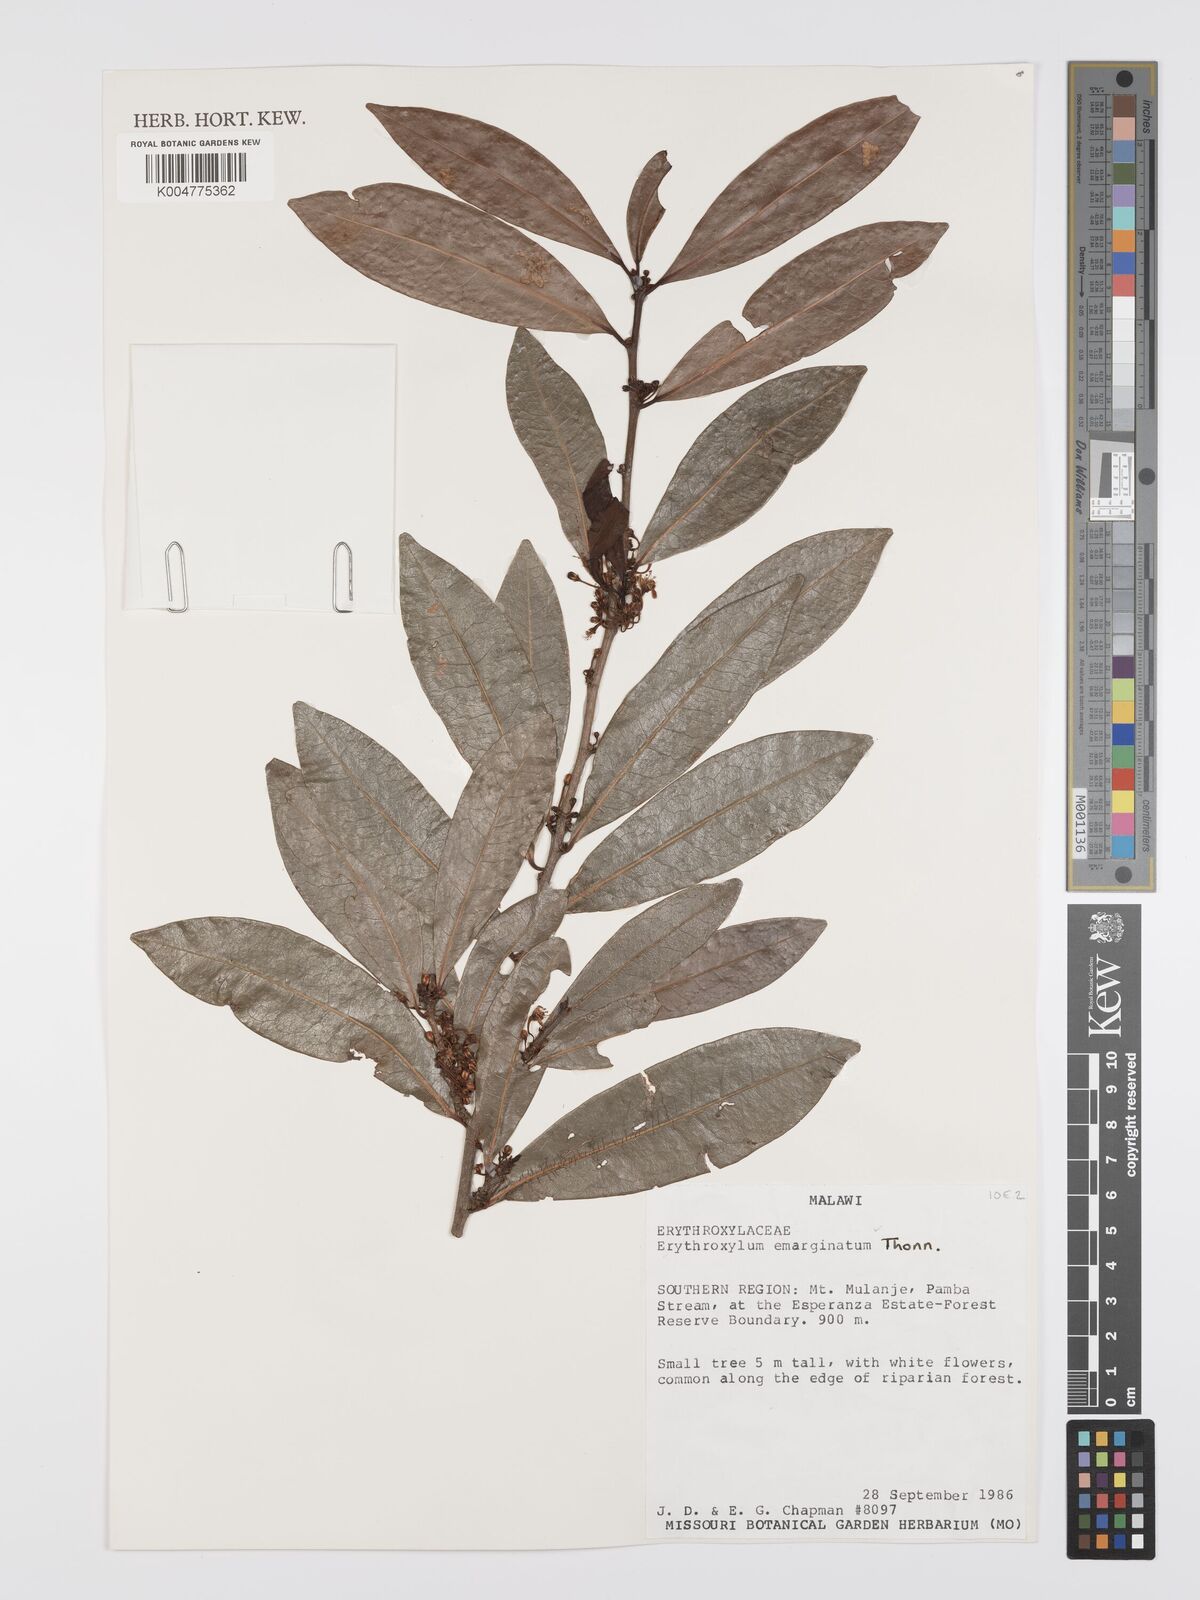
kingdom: Plantae
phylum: Tracheophyta
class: Magnoliopsida
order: Malpighiales
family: Erythroxylaceae
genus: Erythroxylum
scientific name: Erythroxylum emarginatum
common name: African coca-tree
